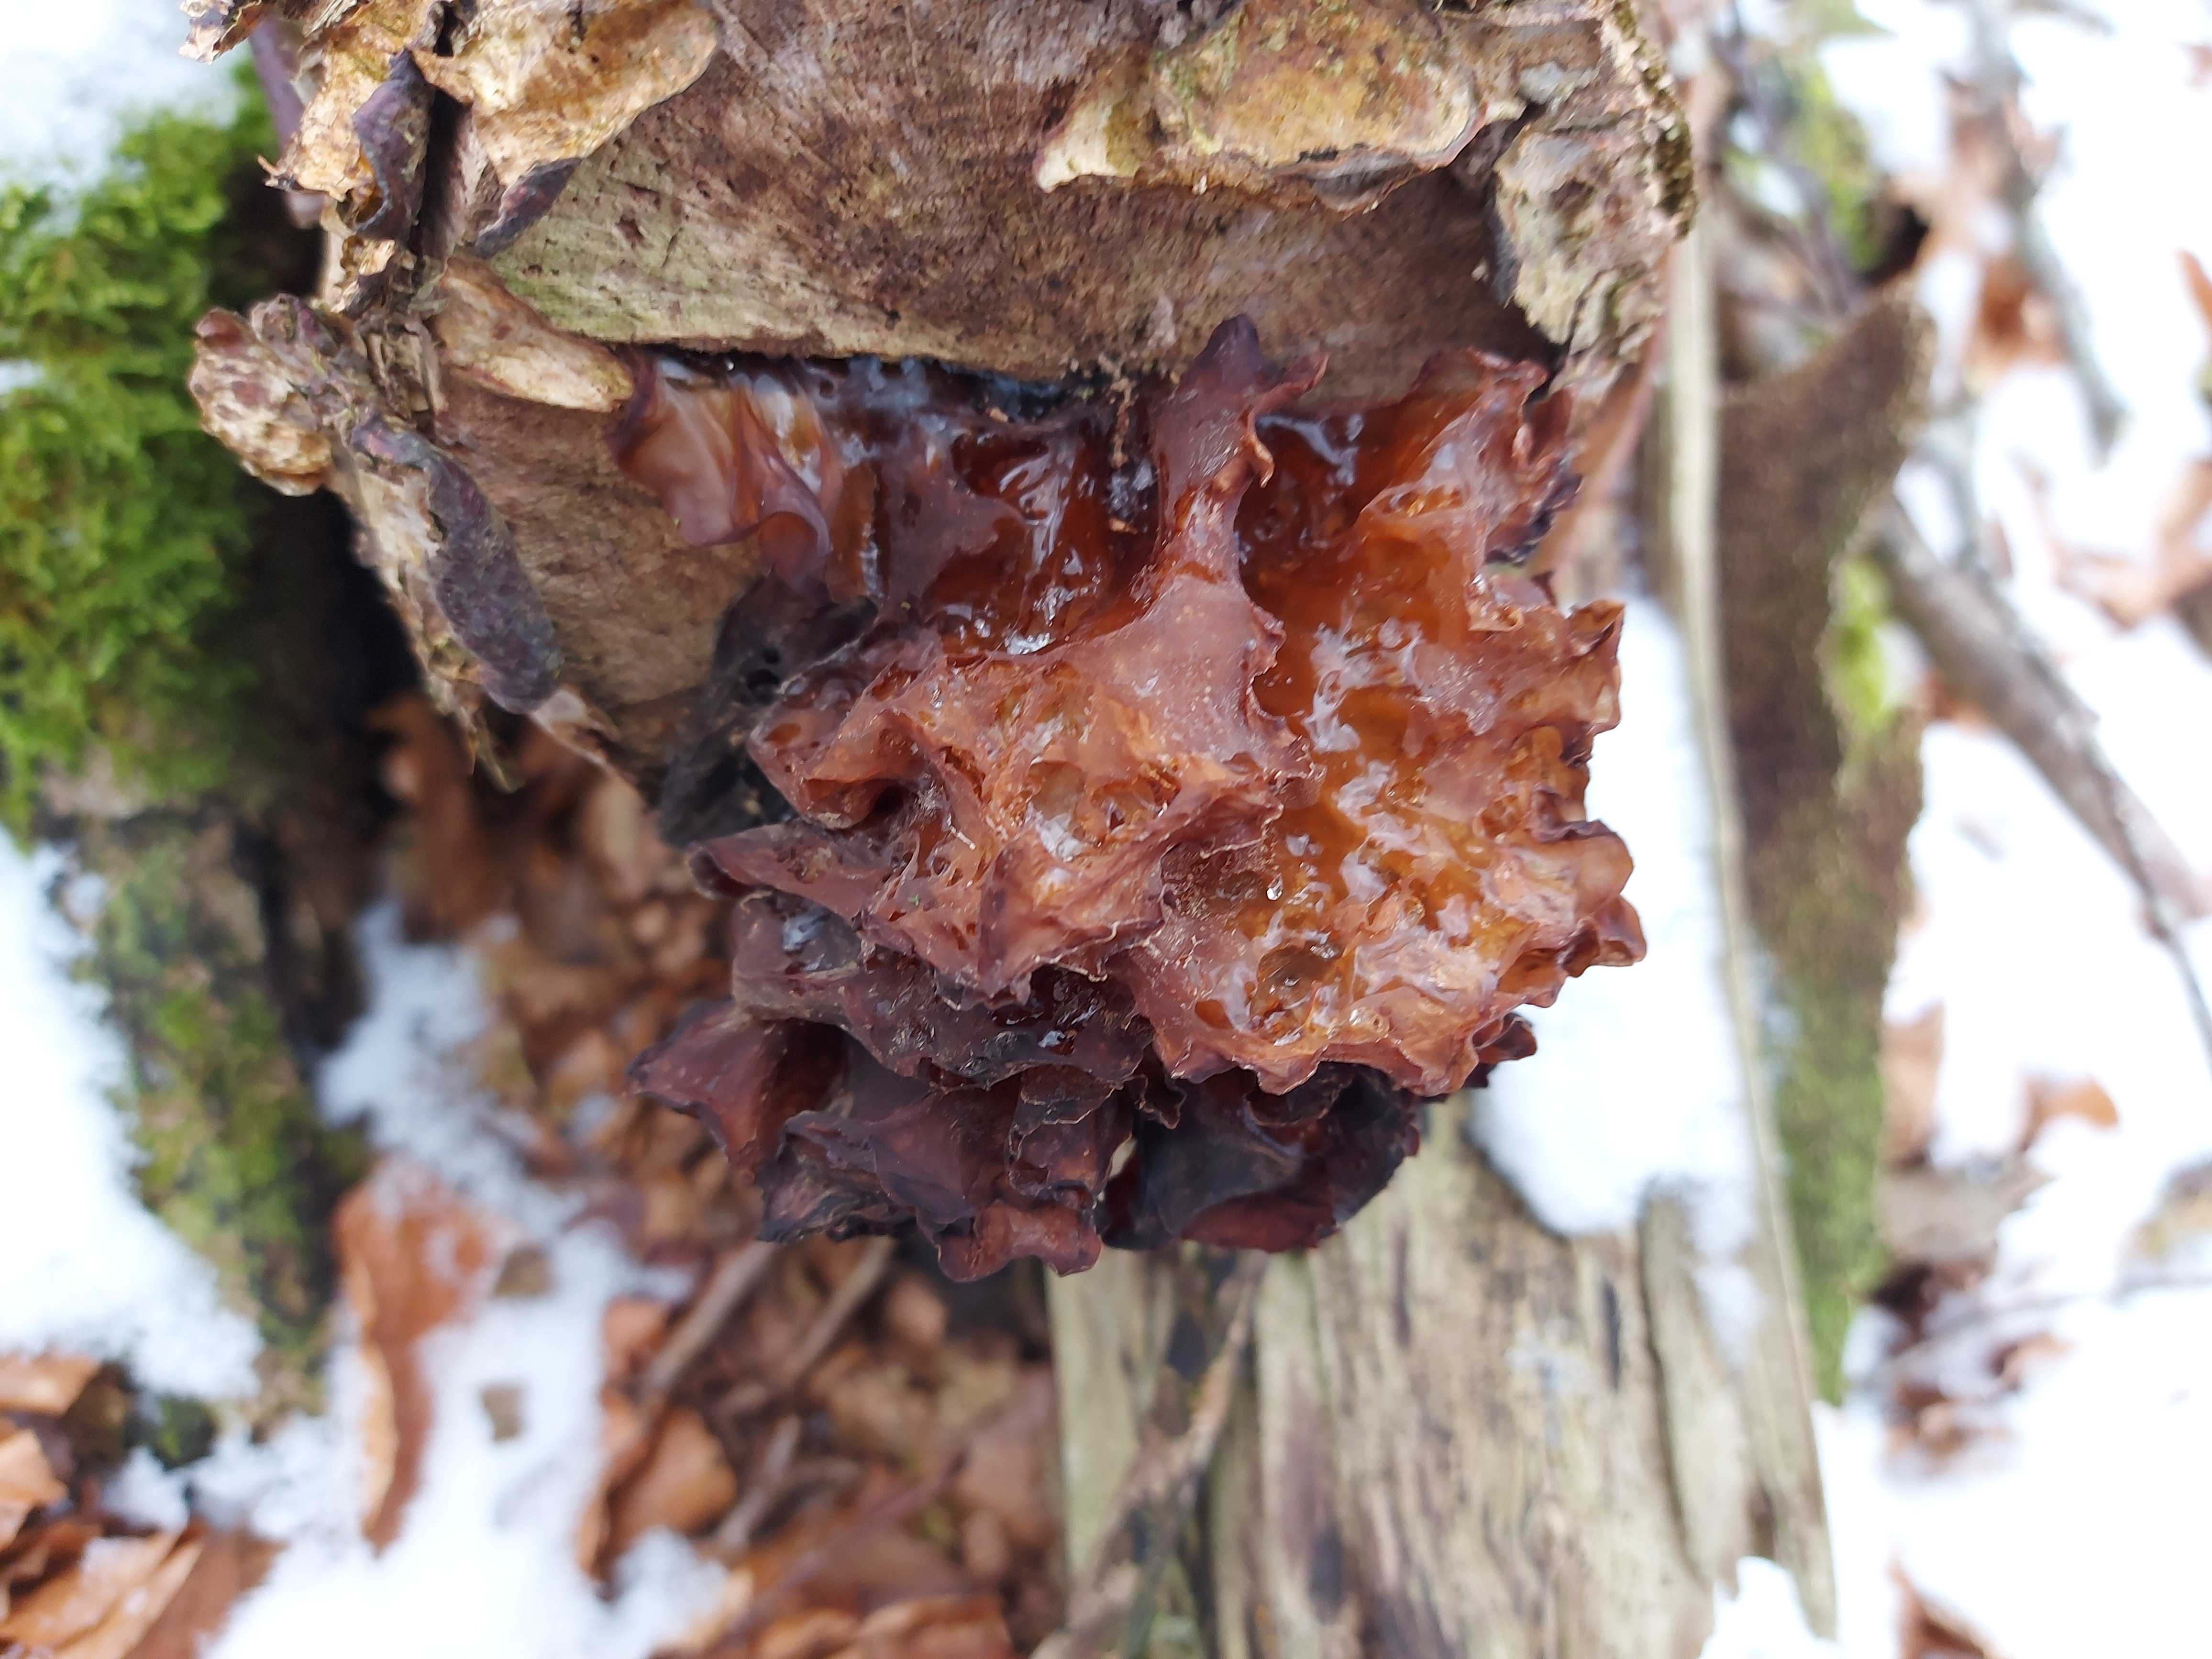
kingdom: Fungi
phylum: Basidiomycota
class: Tremellomycetes
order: Tremellales
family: Tremellaceae
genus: Phaeotremella
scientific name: Phaeotremella frondosa
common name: kæmpe-bævresvamp
